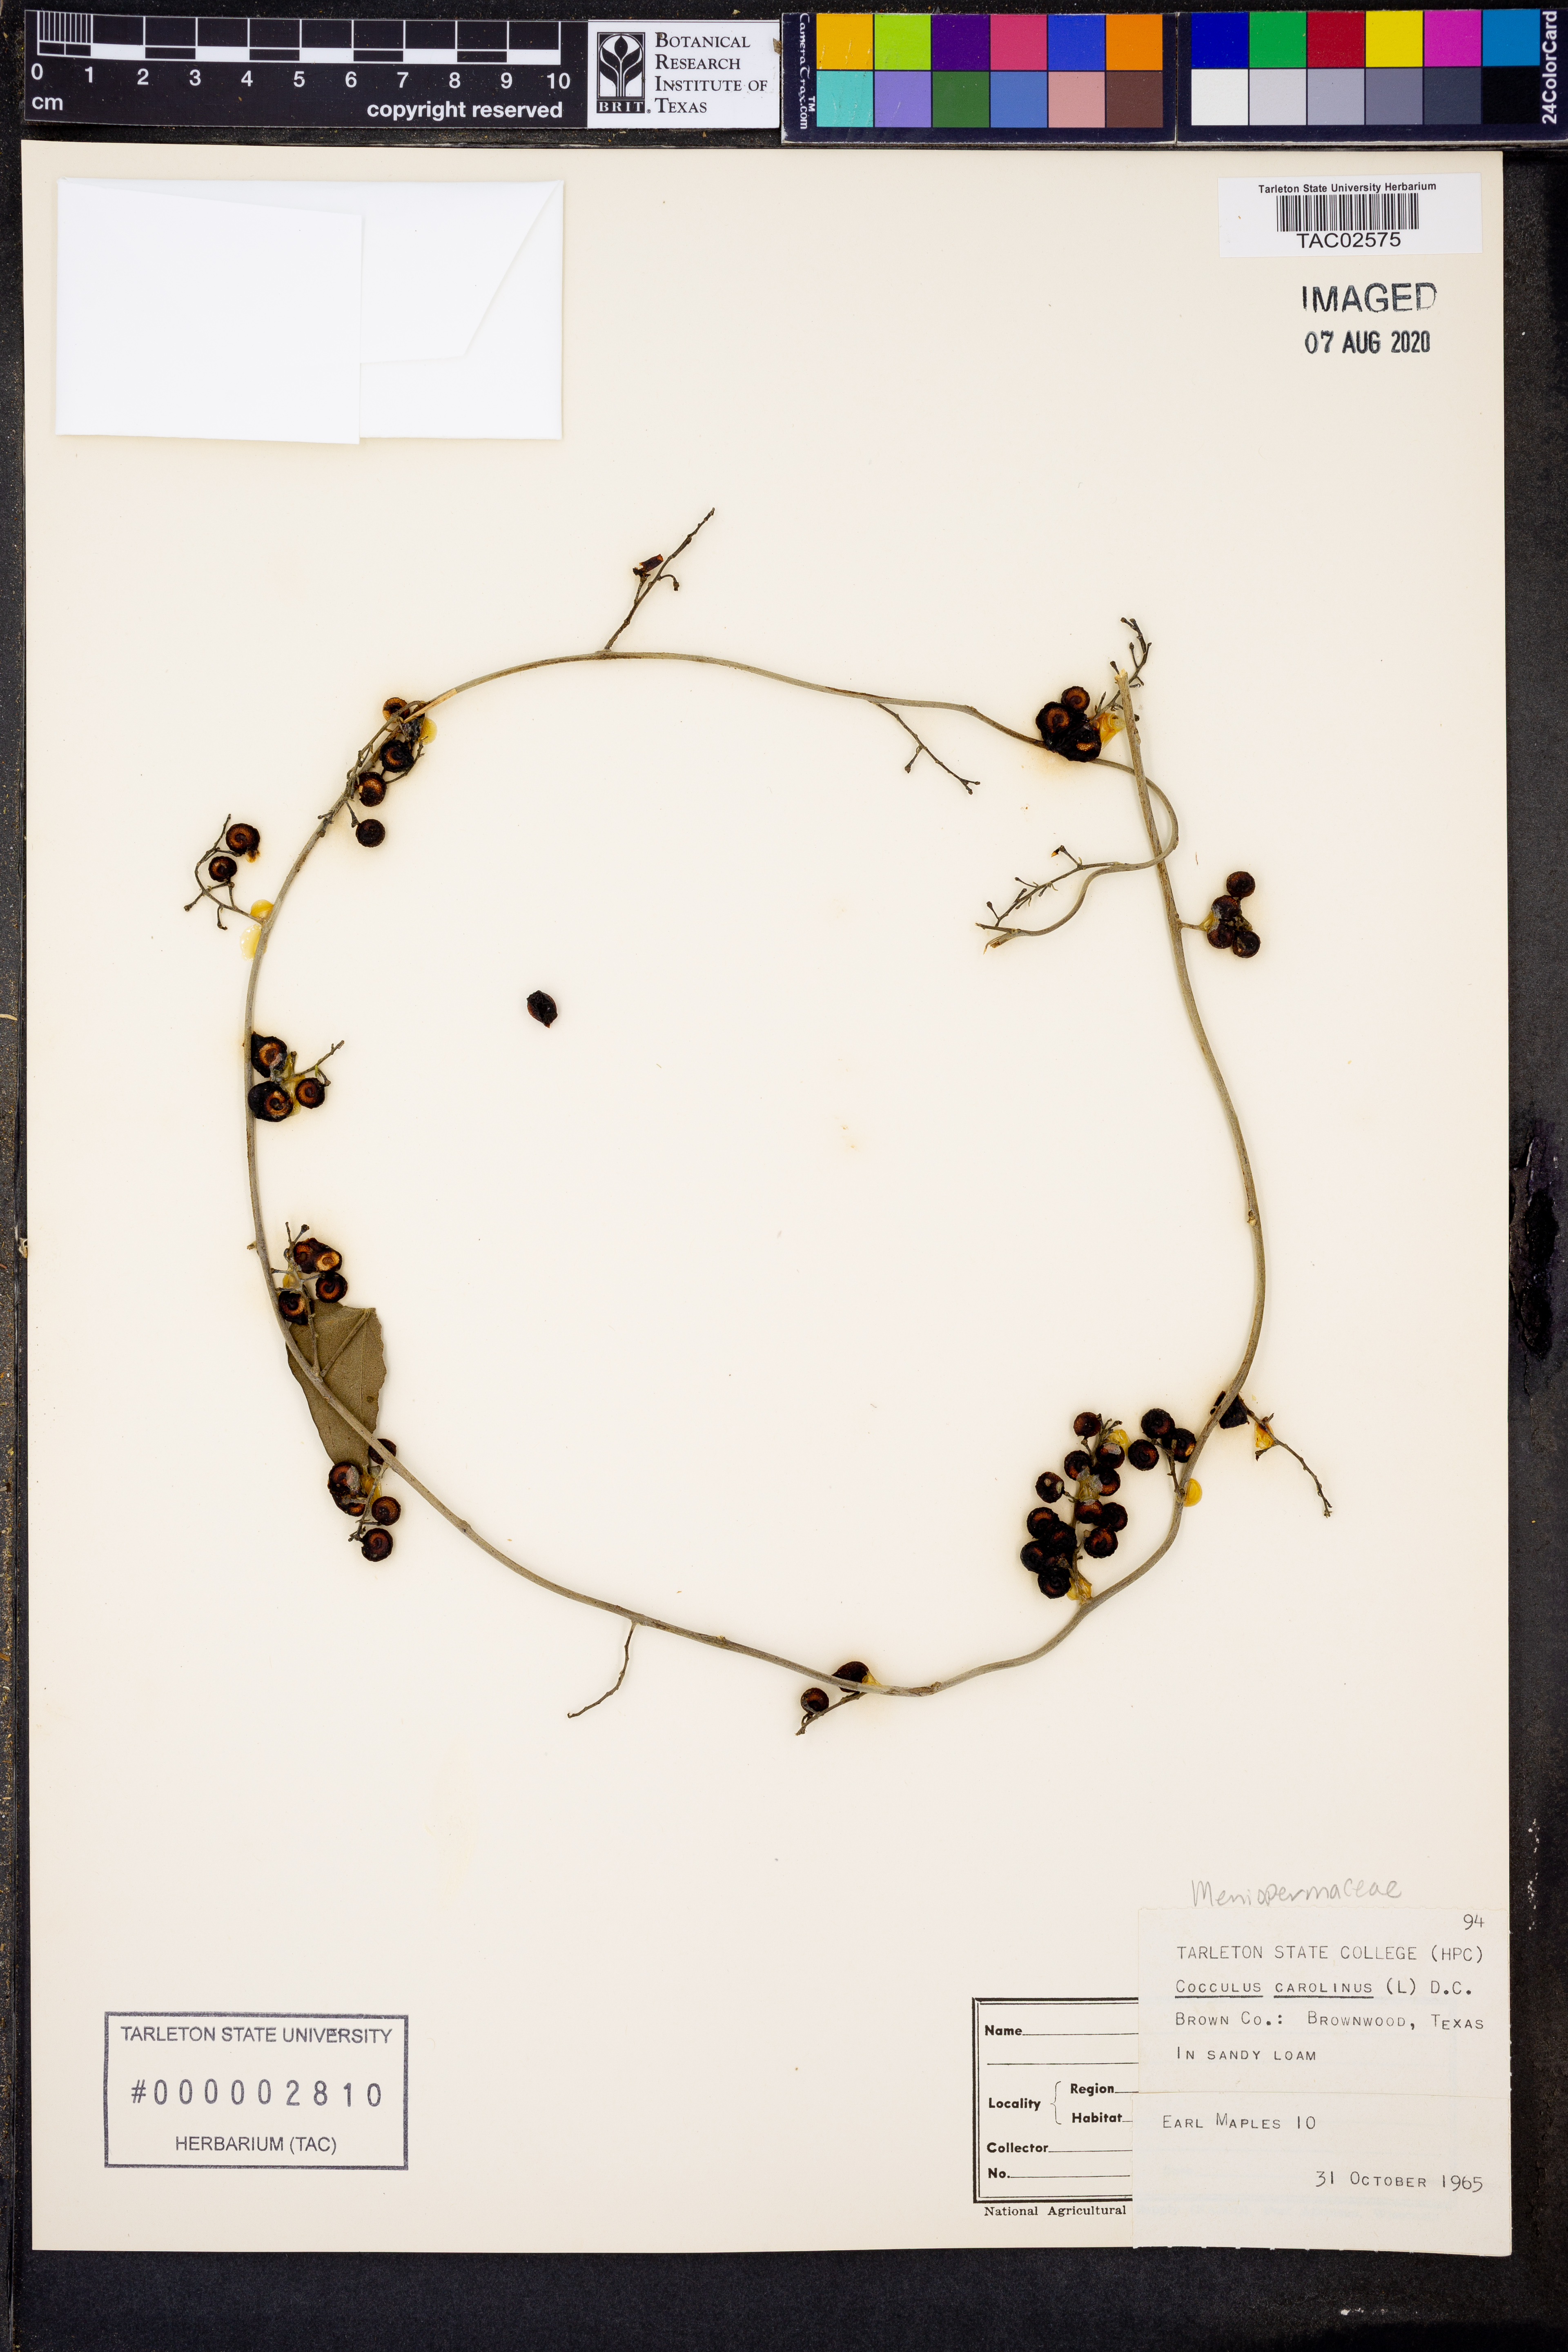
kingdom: Plantae
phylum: Tracheophyta
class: Magnoliopsida
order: Ranunculales
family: Menispermaceae
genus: Cocculus
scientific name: Cocculus carolinus
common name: Carolina moonseed
